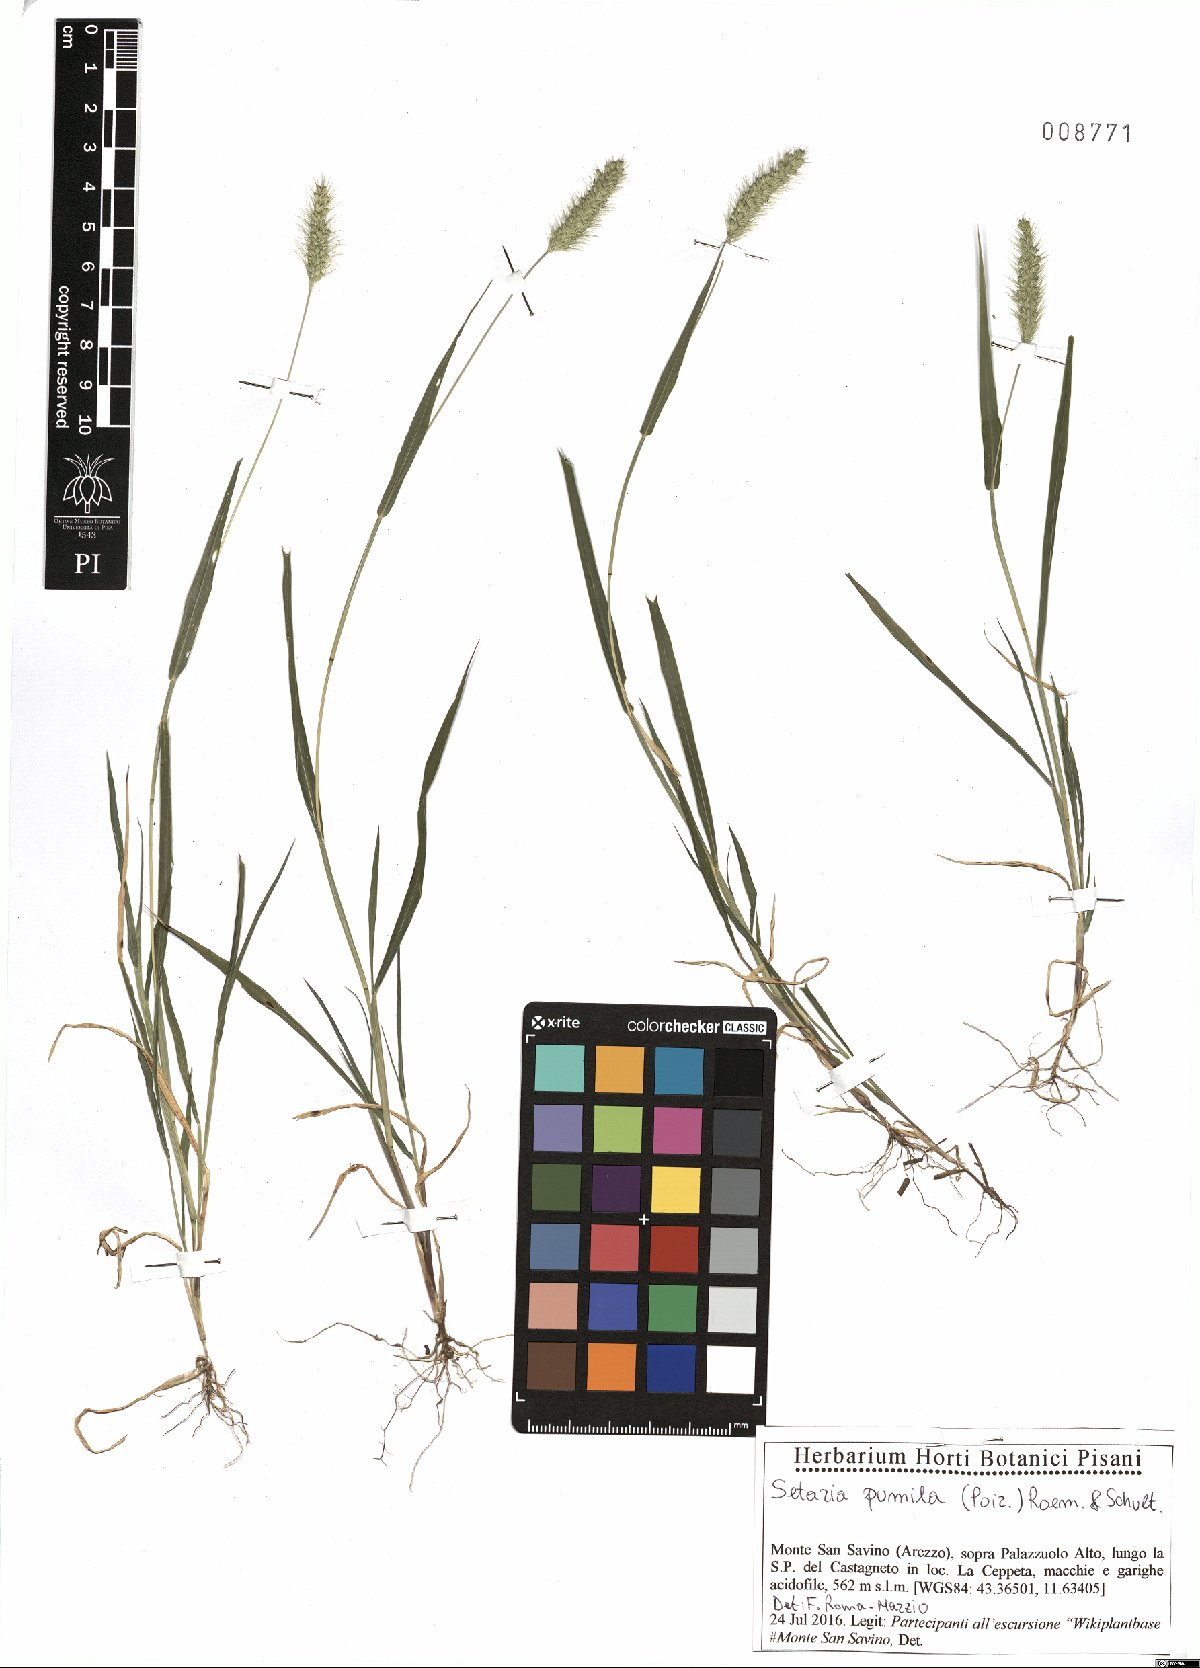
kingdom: Plantae
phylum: Tracheophyta
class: Liliopsida
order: Poales
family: Poaceae
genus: Setaria
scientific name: Setaria pumila
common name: Yellow bristle-grass
